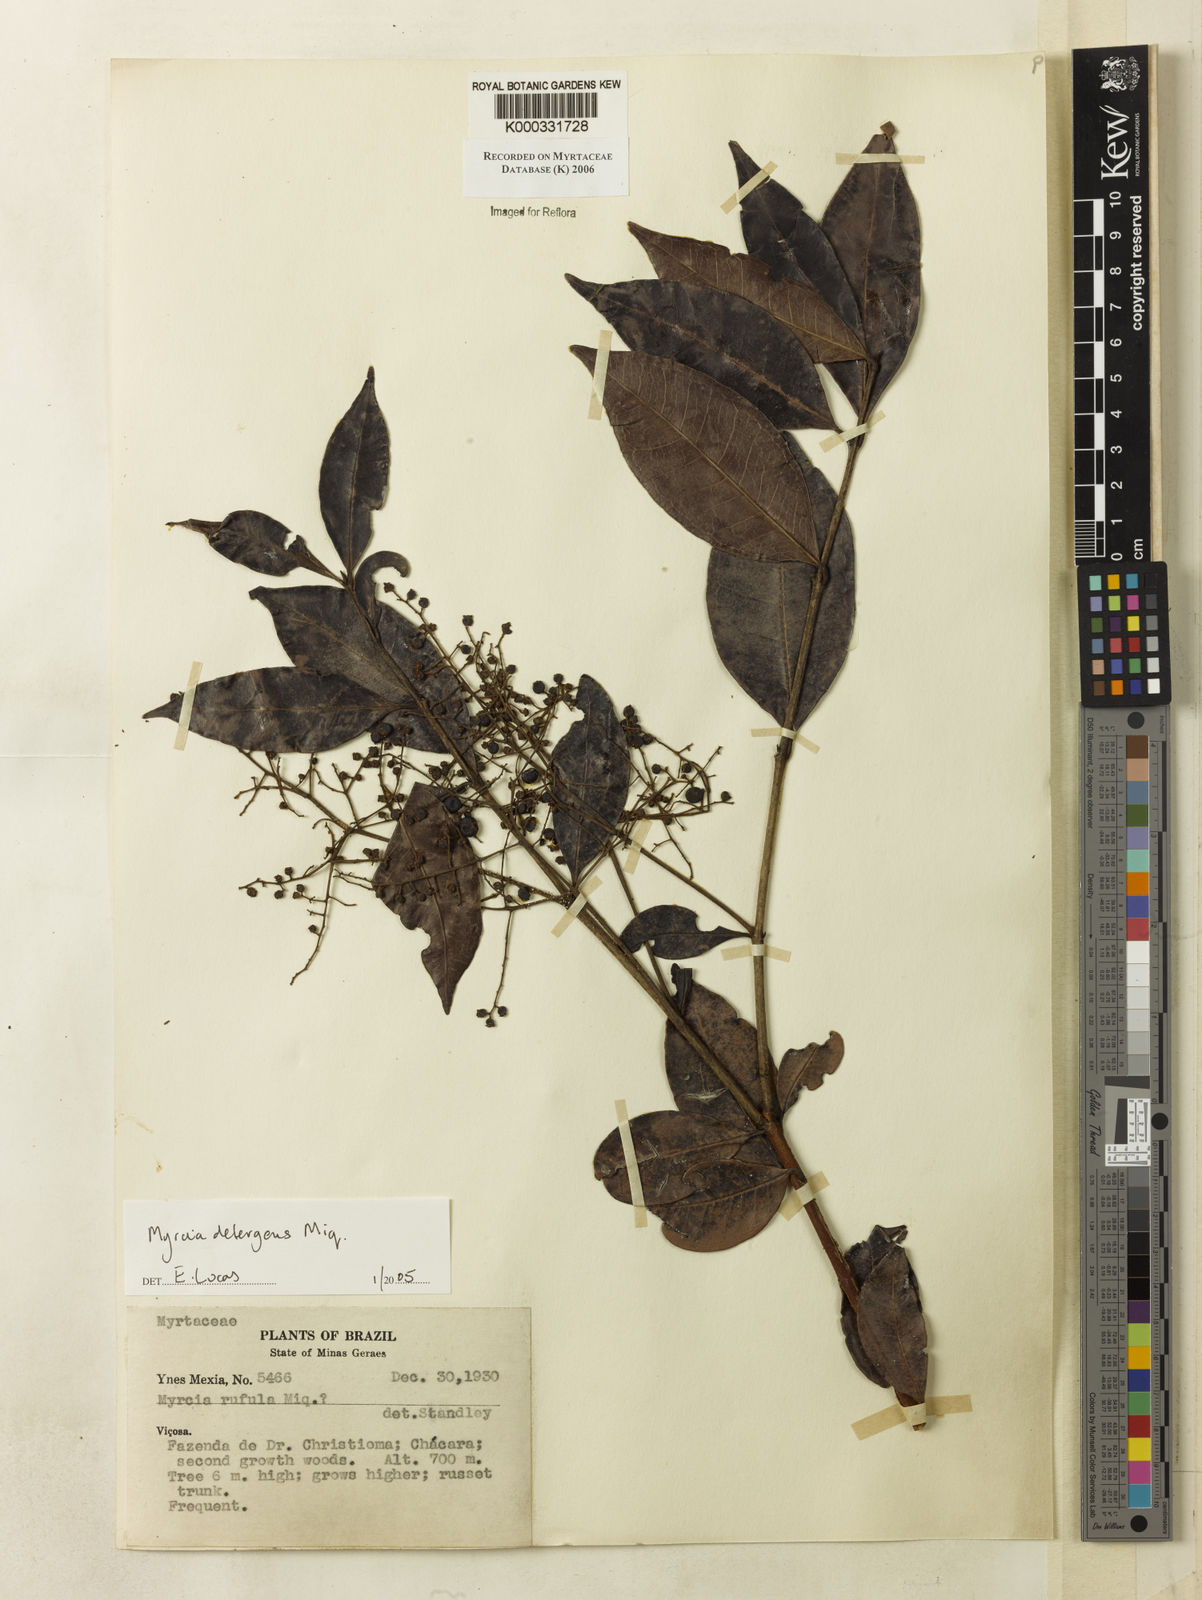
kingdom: Plantae
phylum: Tracheophyta
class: Magnoliopsida
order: Myrtales
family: Myrtaceae
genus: Myrcia
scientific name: Myrcia amazonica
